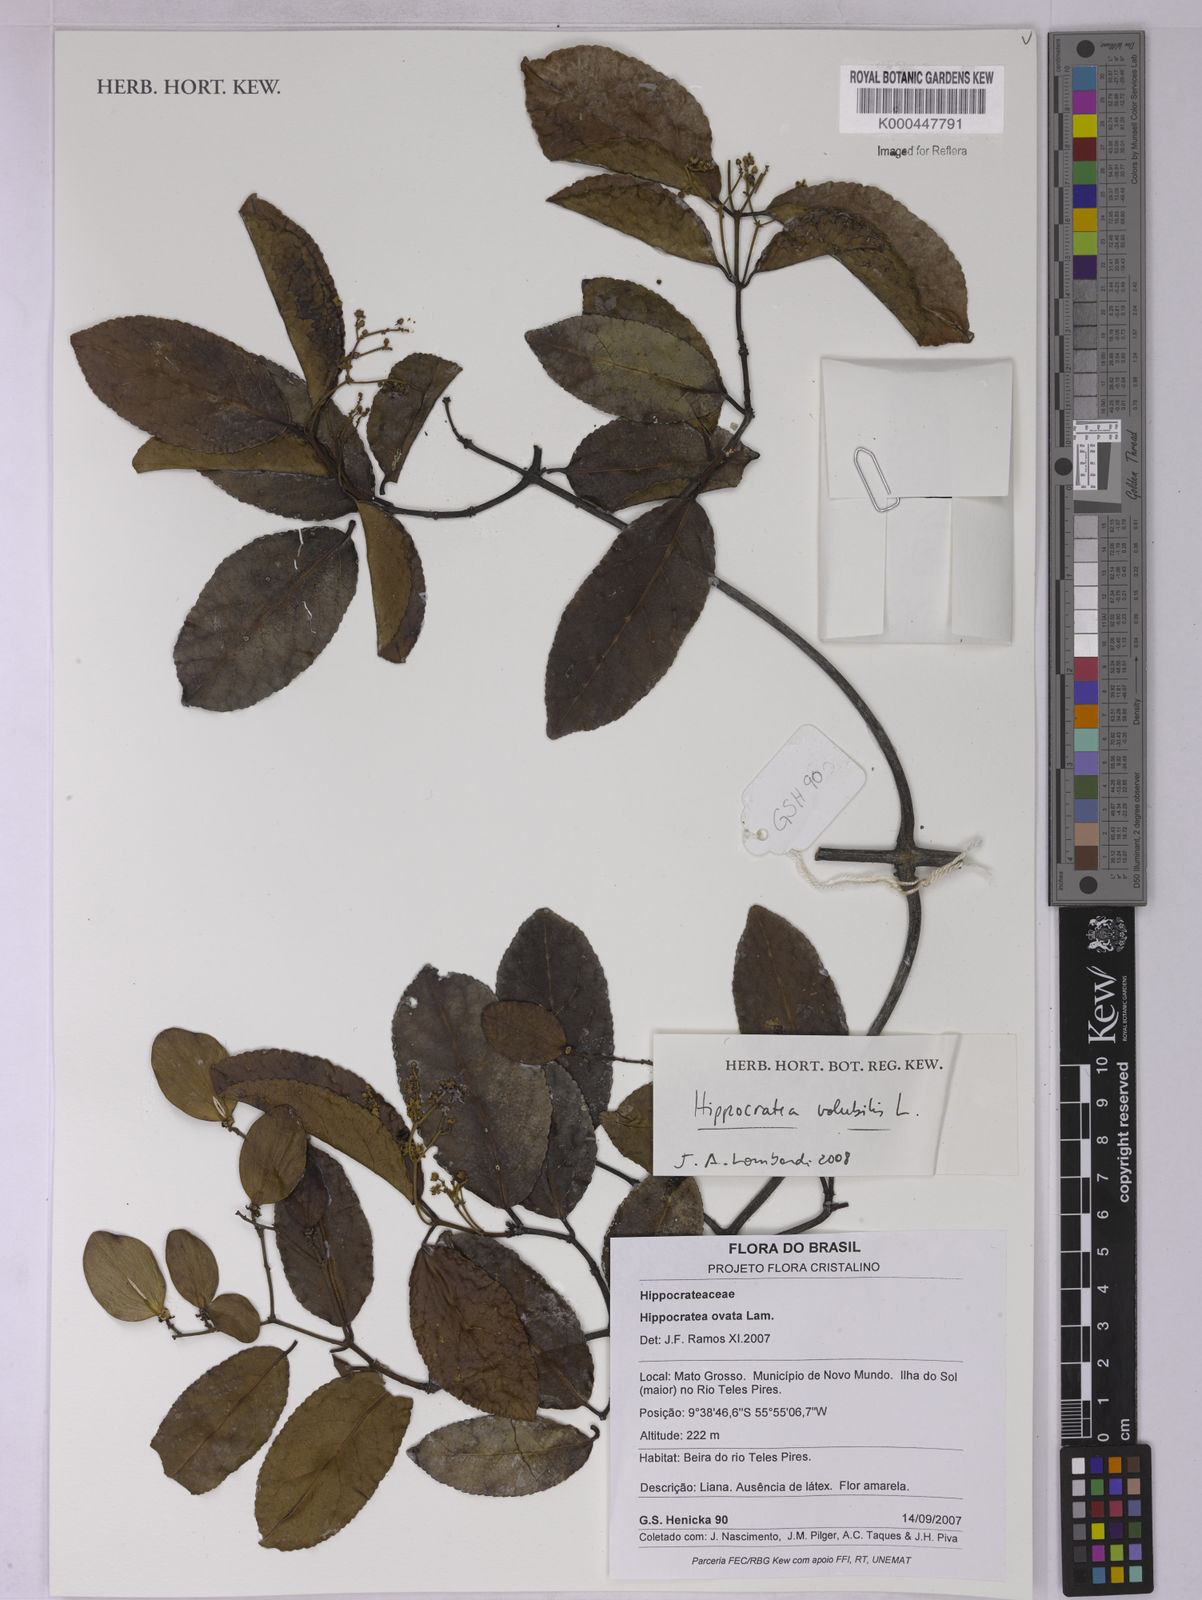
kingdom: Plantae
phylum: Tracheophyta
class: Magnoliopsida
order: Celastrales
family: Celastraceae
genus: Hippocratea
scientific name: Hippocratea volubilis
